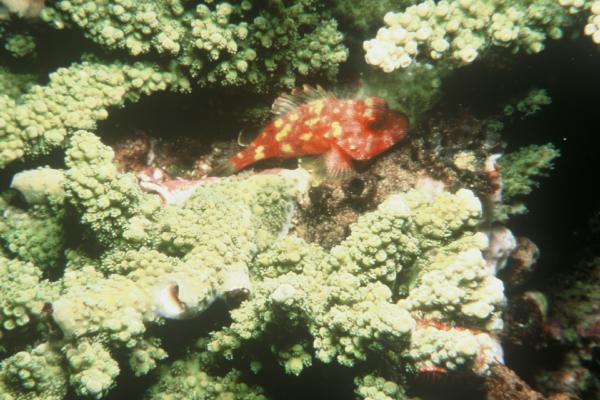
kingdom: Animalia
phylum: Chordata
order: Scorpaeniformes
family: Scorpaenidae
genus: Sebastapistes
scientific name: Sebastapistes cyanostigma
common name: Yellowspotted scorpionfish
